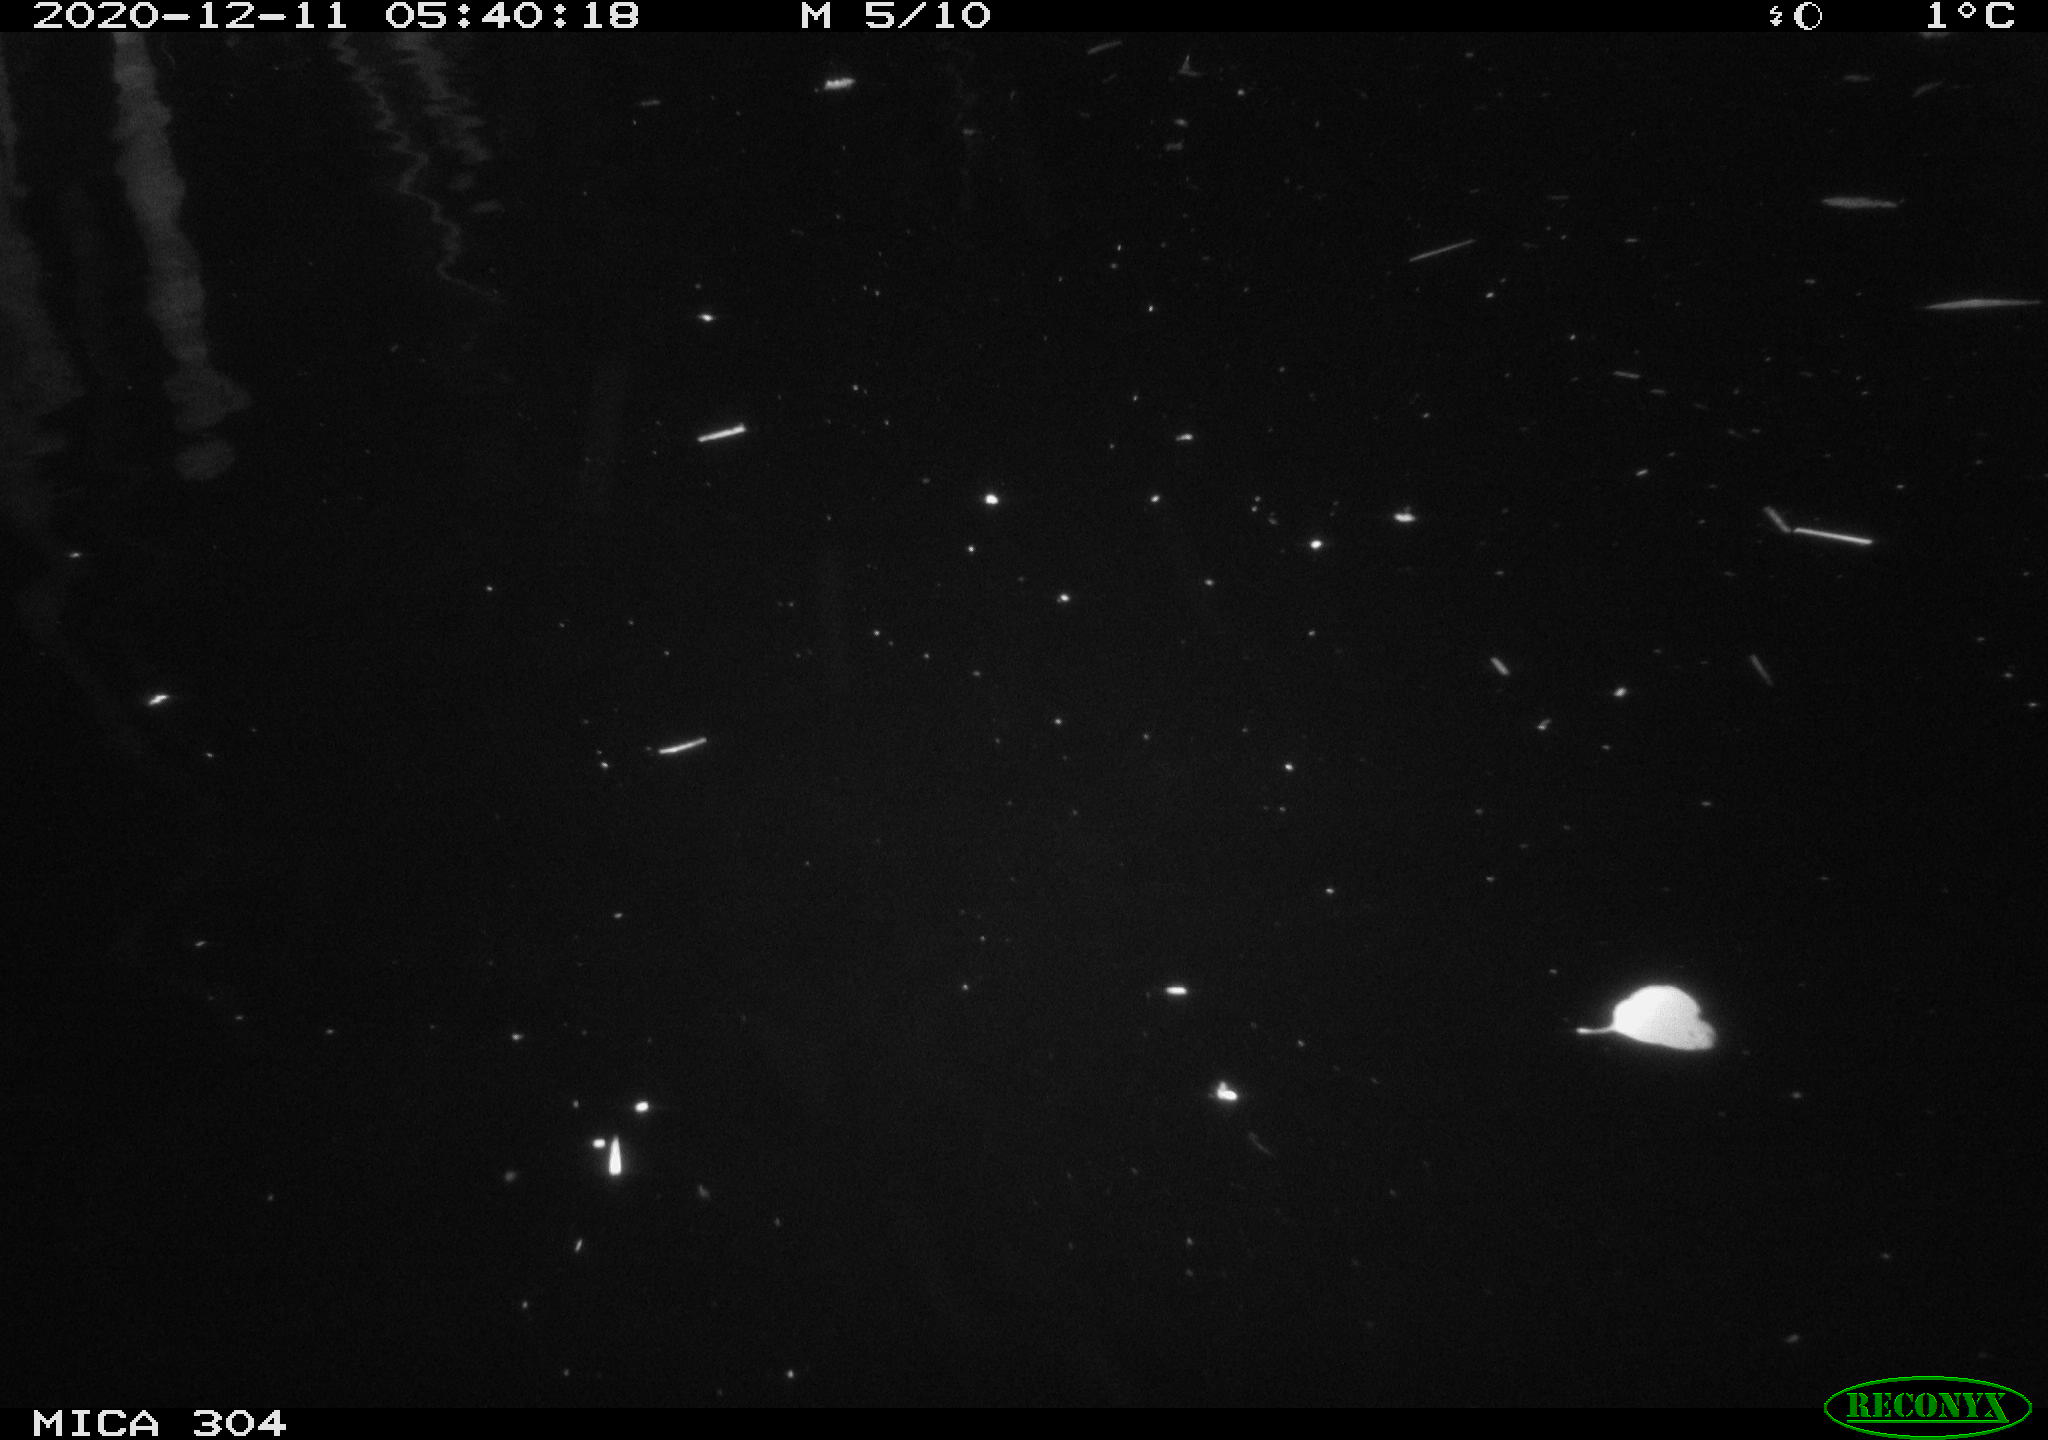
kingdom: Animalia
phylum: Chordata
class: Mammalia
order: Rodentia
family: Cricetidae
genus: Ondatra
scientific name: Ondatra zibethicus
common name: Muskrat
